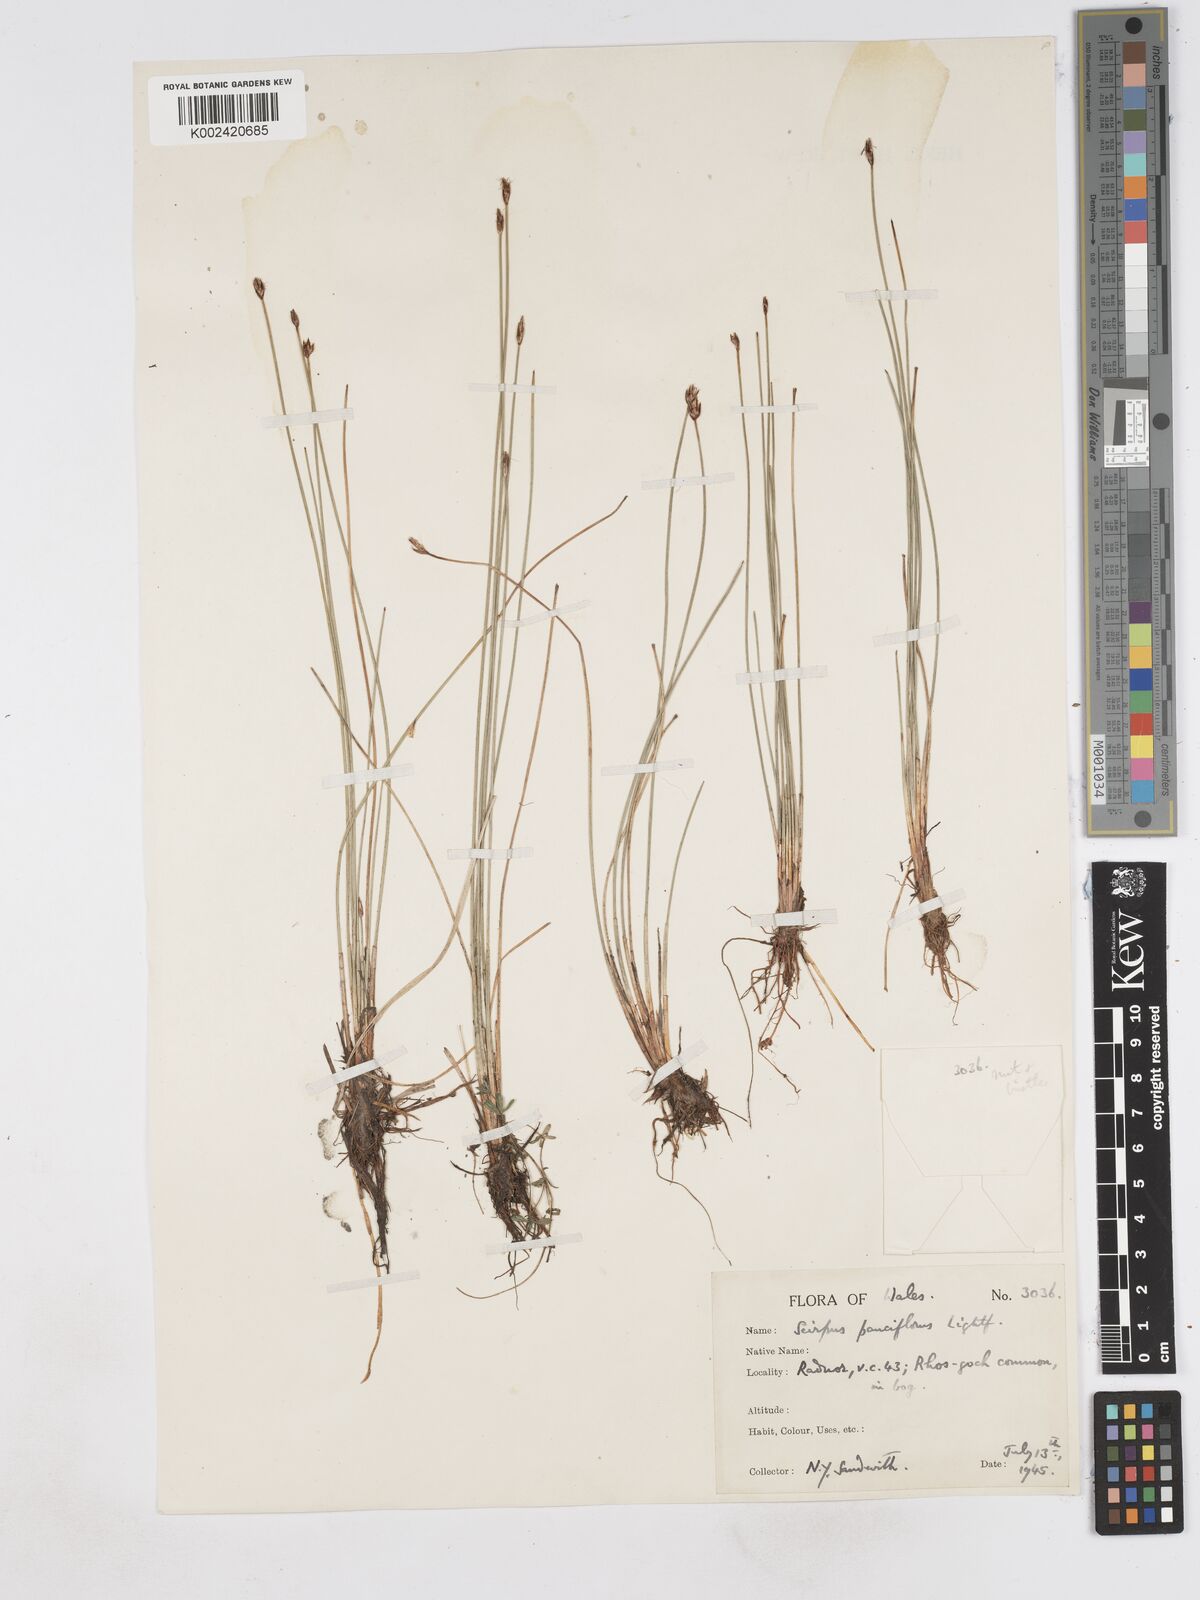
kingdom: Plantae
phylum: Tracheophyta
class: Liliopsida
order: Poales
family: Cyperaceae
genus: Eleocharis
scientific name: Eleocharis quinqueflora
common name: Few-flowered spike-rush
